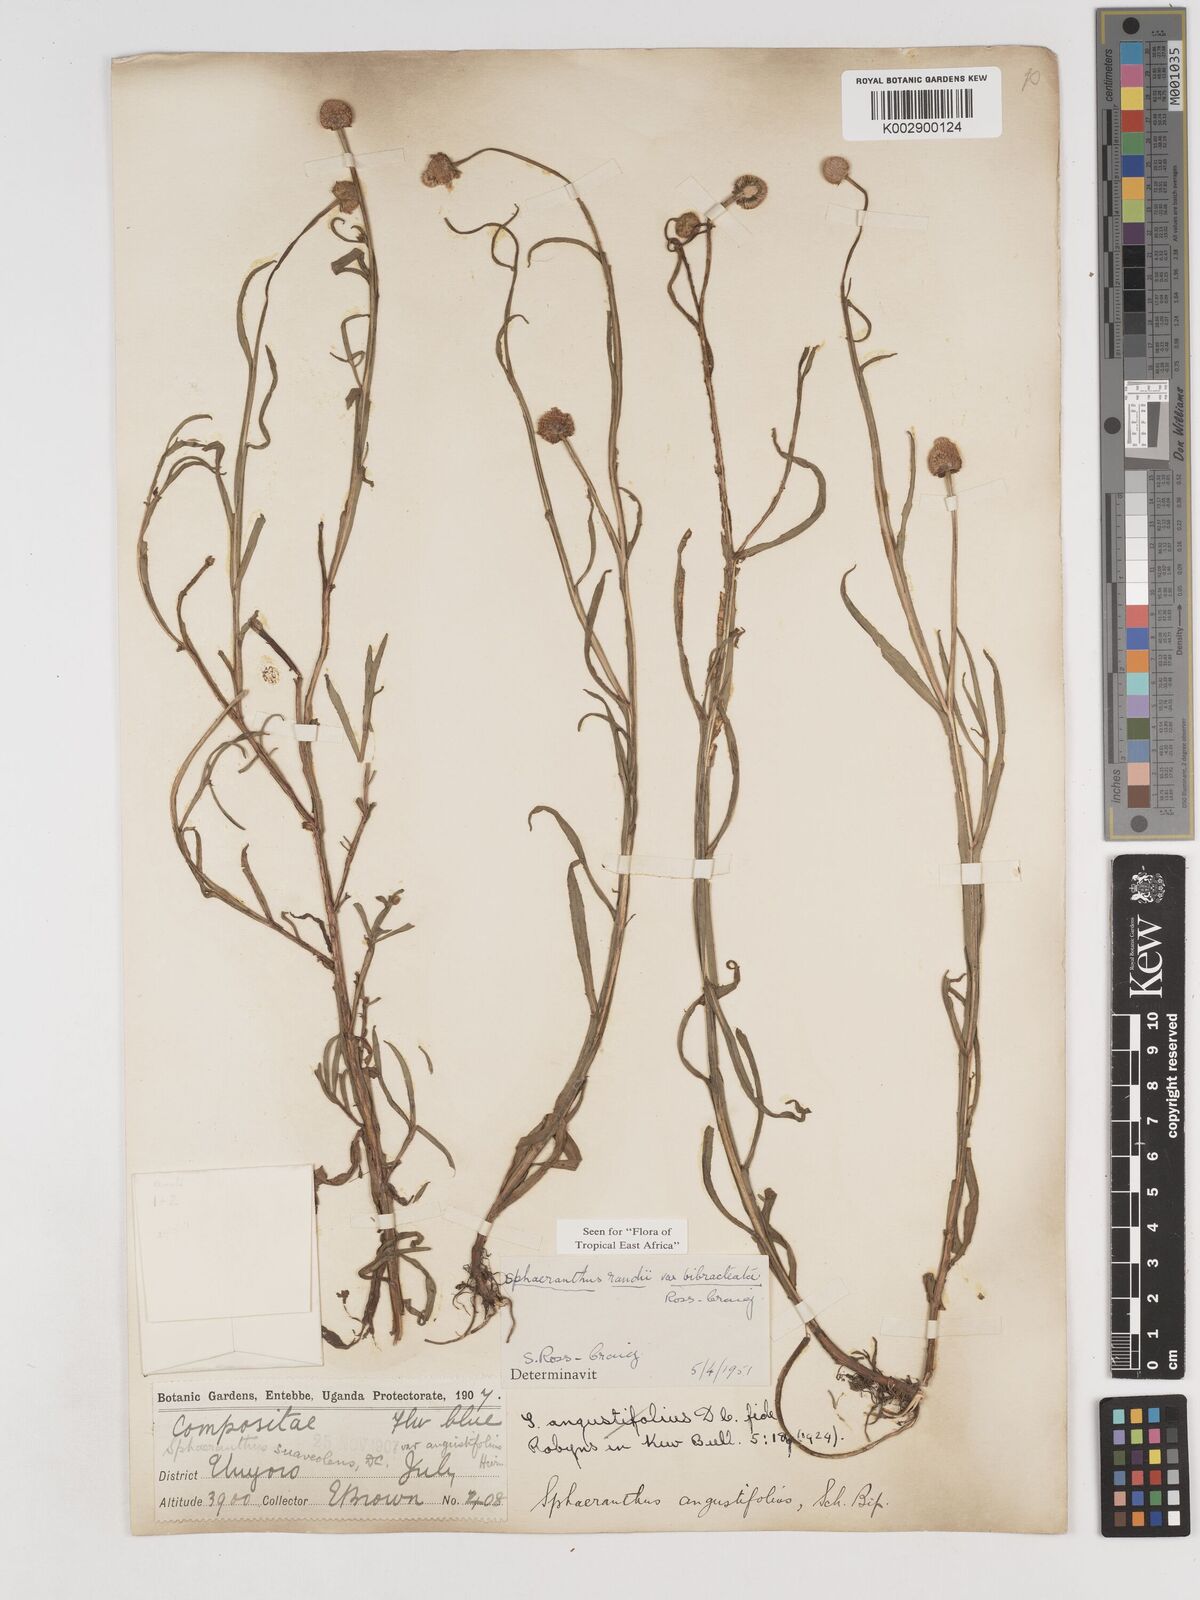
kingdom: Plantae
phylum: Tracheophyta
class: Magnoliopsida
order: Asterales
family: Asteraceae
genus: Sphaeranthus
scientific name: Sphaeranthus randii
